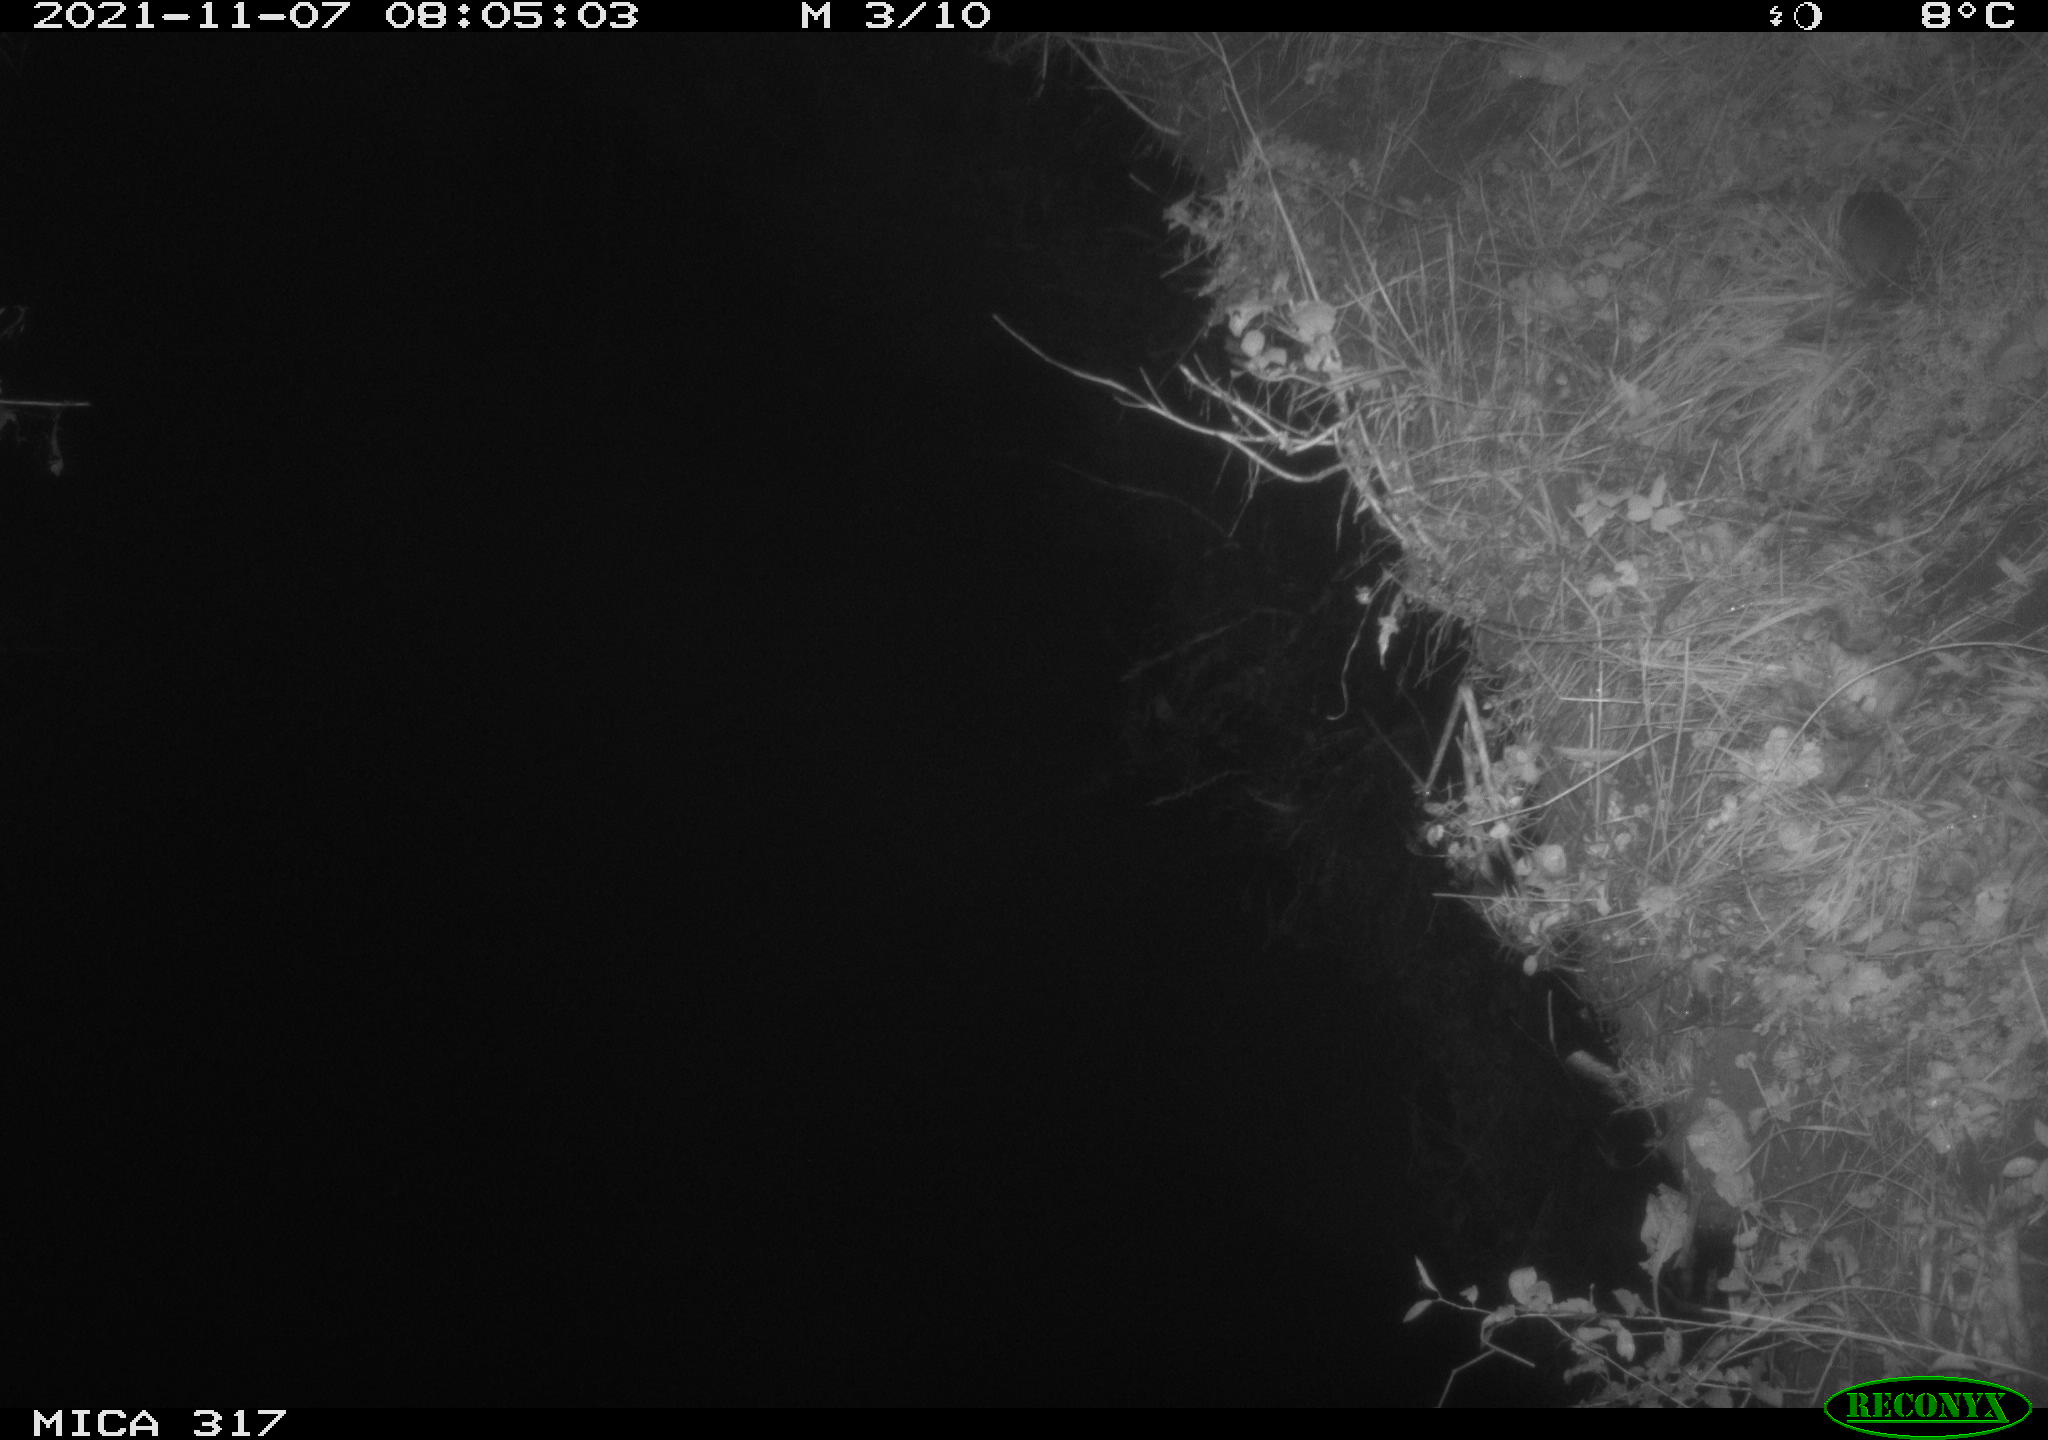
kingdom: Animalia
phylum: Chordata
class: Mammalia
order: Rodentia
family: Muridae
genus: Rattus
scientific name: Rattus norvegicus
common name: Brown rat
